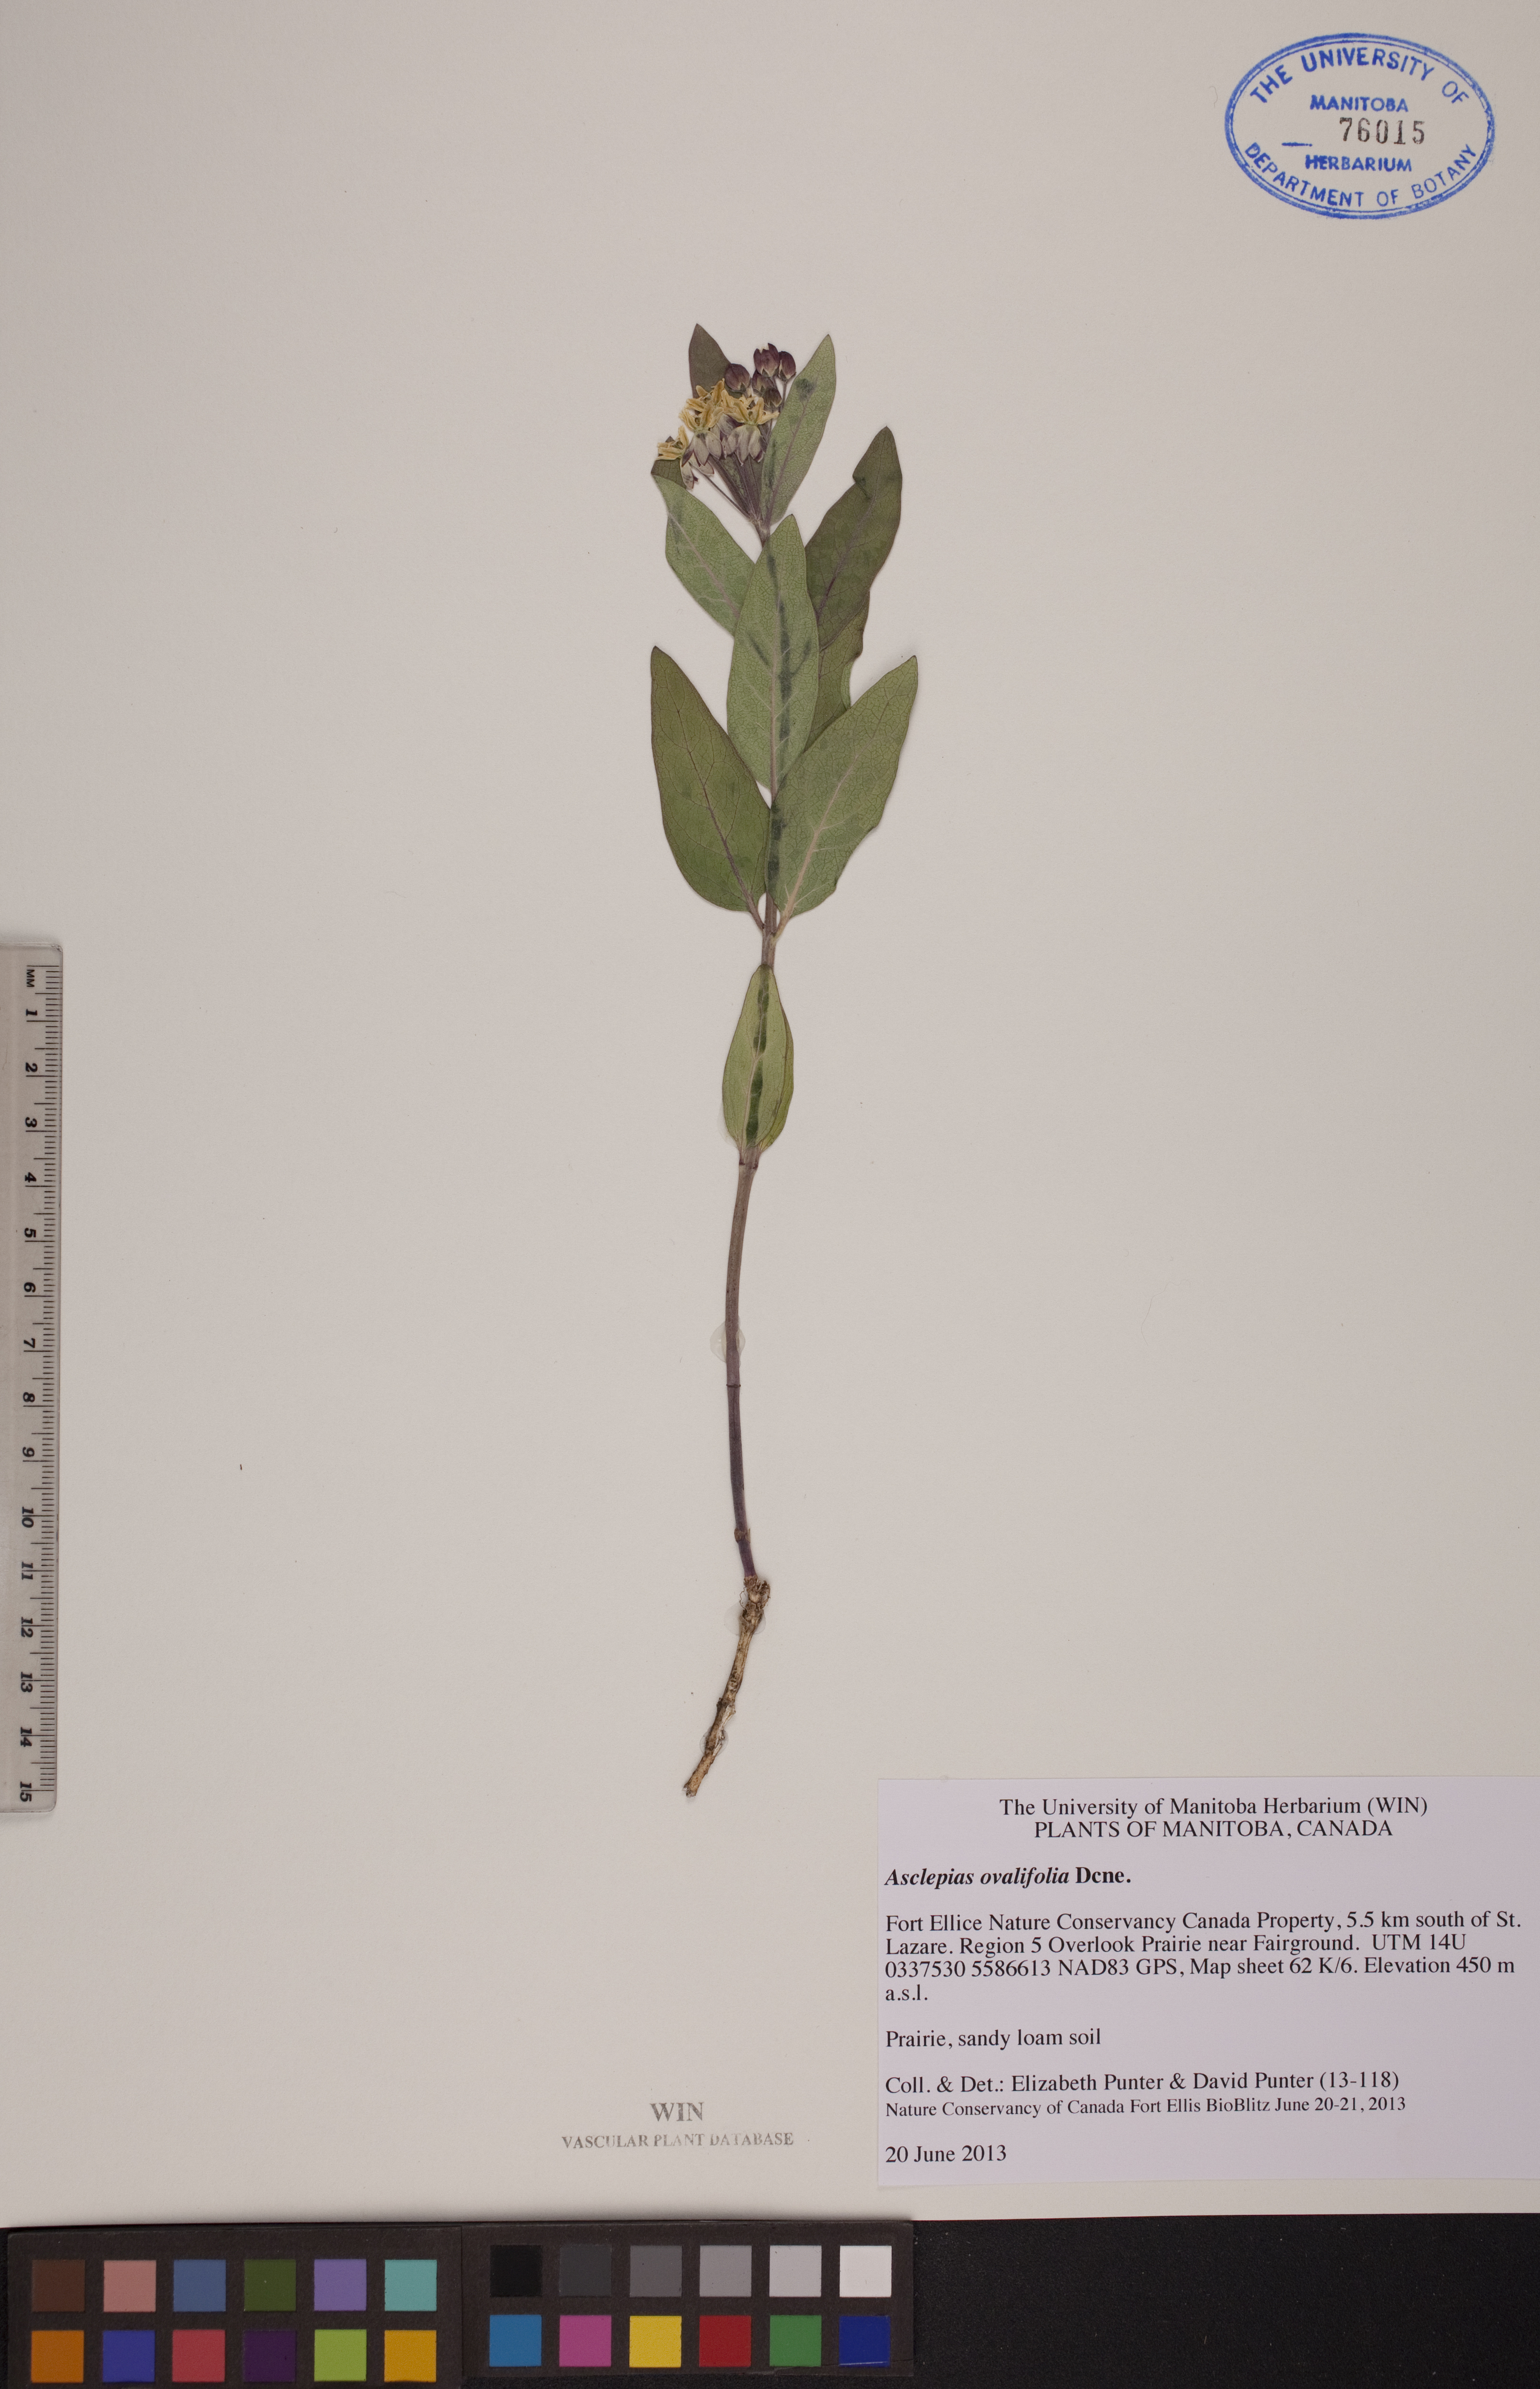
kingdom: Plantae
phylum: Tracheophyta
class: Magnoliopsida
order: Gentianales
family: Apocynaceae
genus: Asclepias
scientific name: Asclepias ovalifolia
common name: Dwarf milkweed
